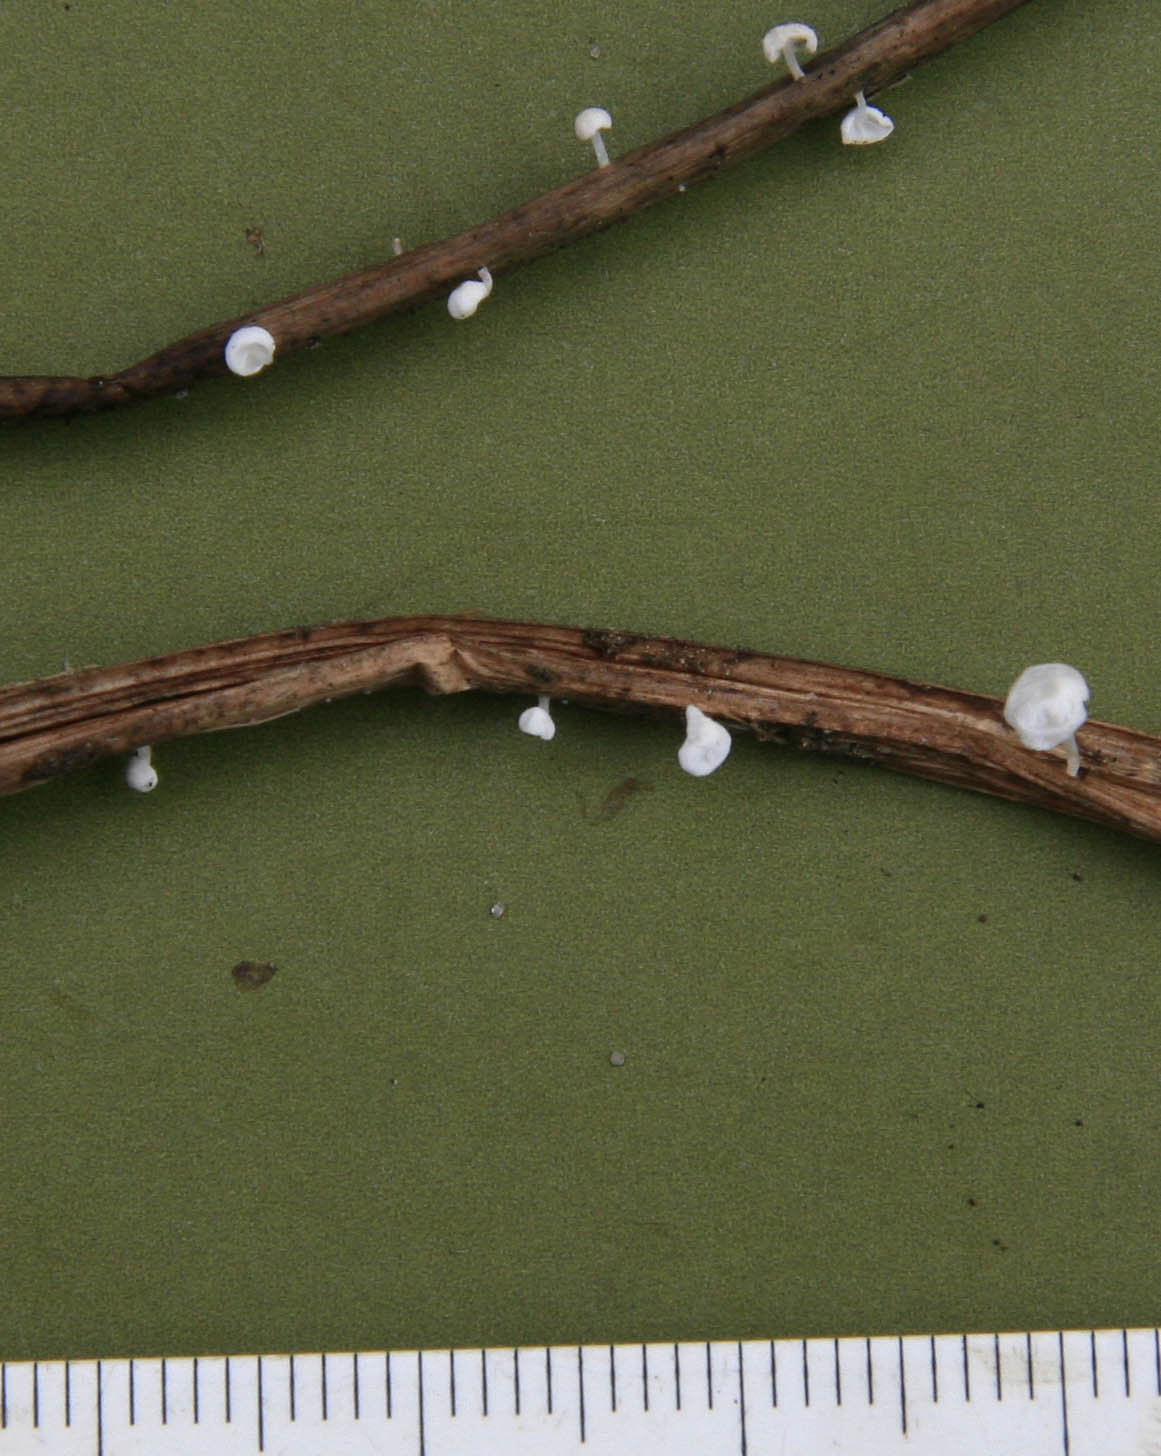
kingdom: Fungi
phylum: Basidiomycota
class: Agaricomycetes
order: Agaricales
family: Physalacriaceae
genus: Gloiocephala
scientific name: Gloiocephala caricis
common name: star-spatelhat
